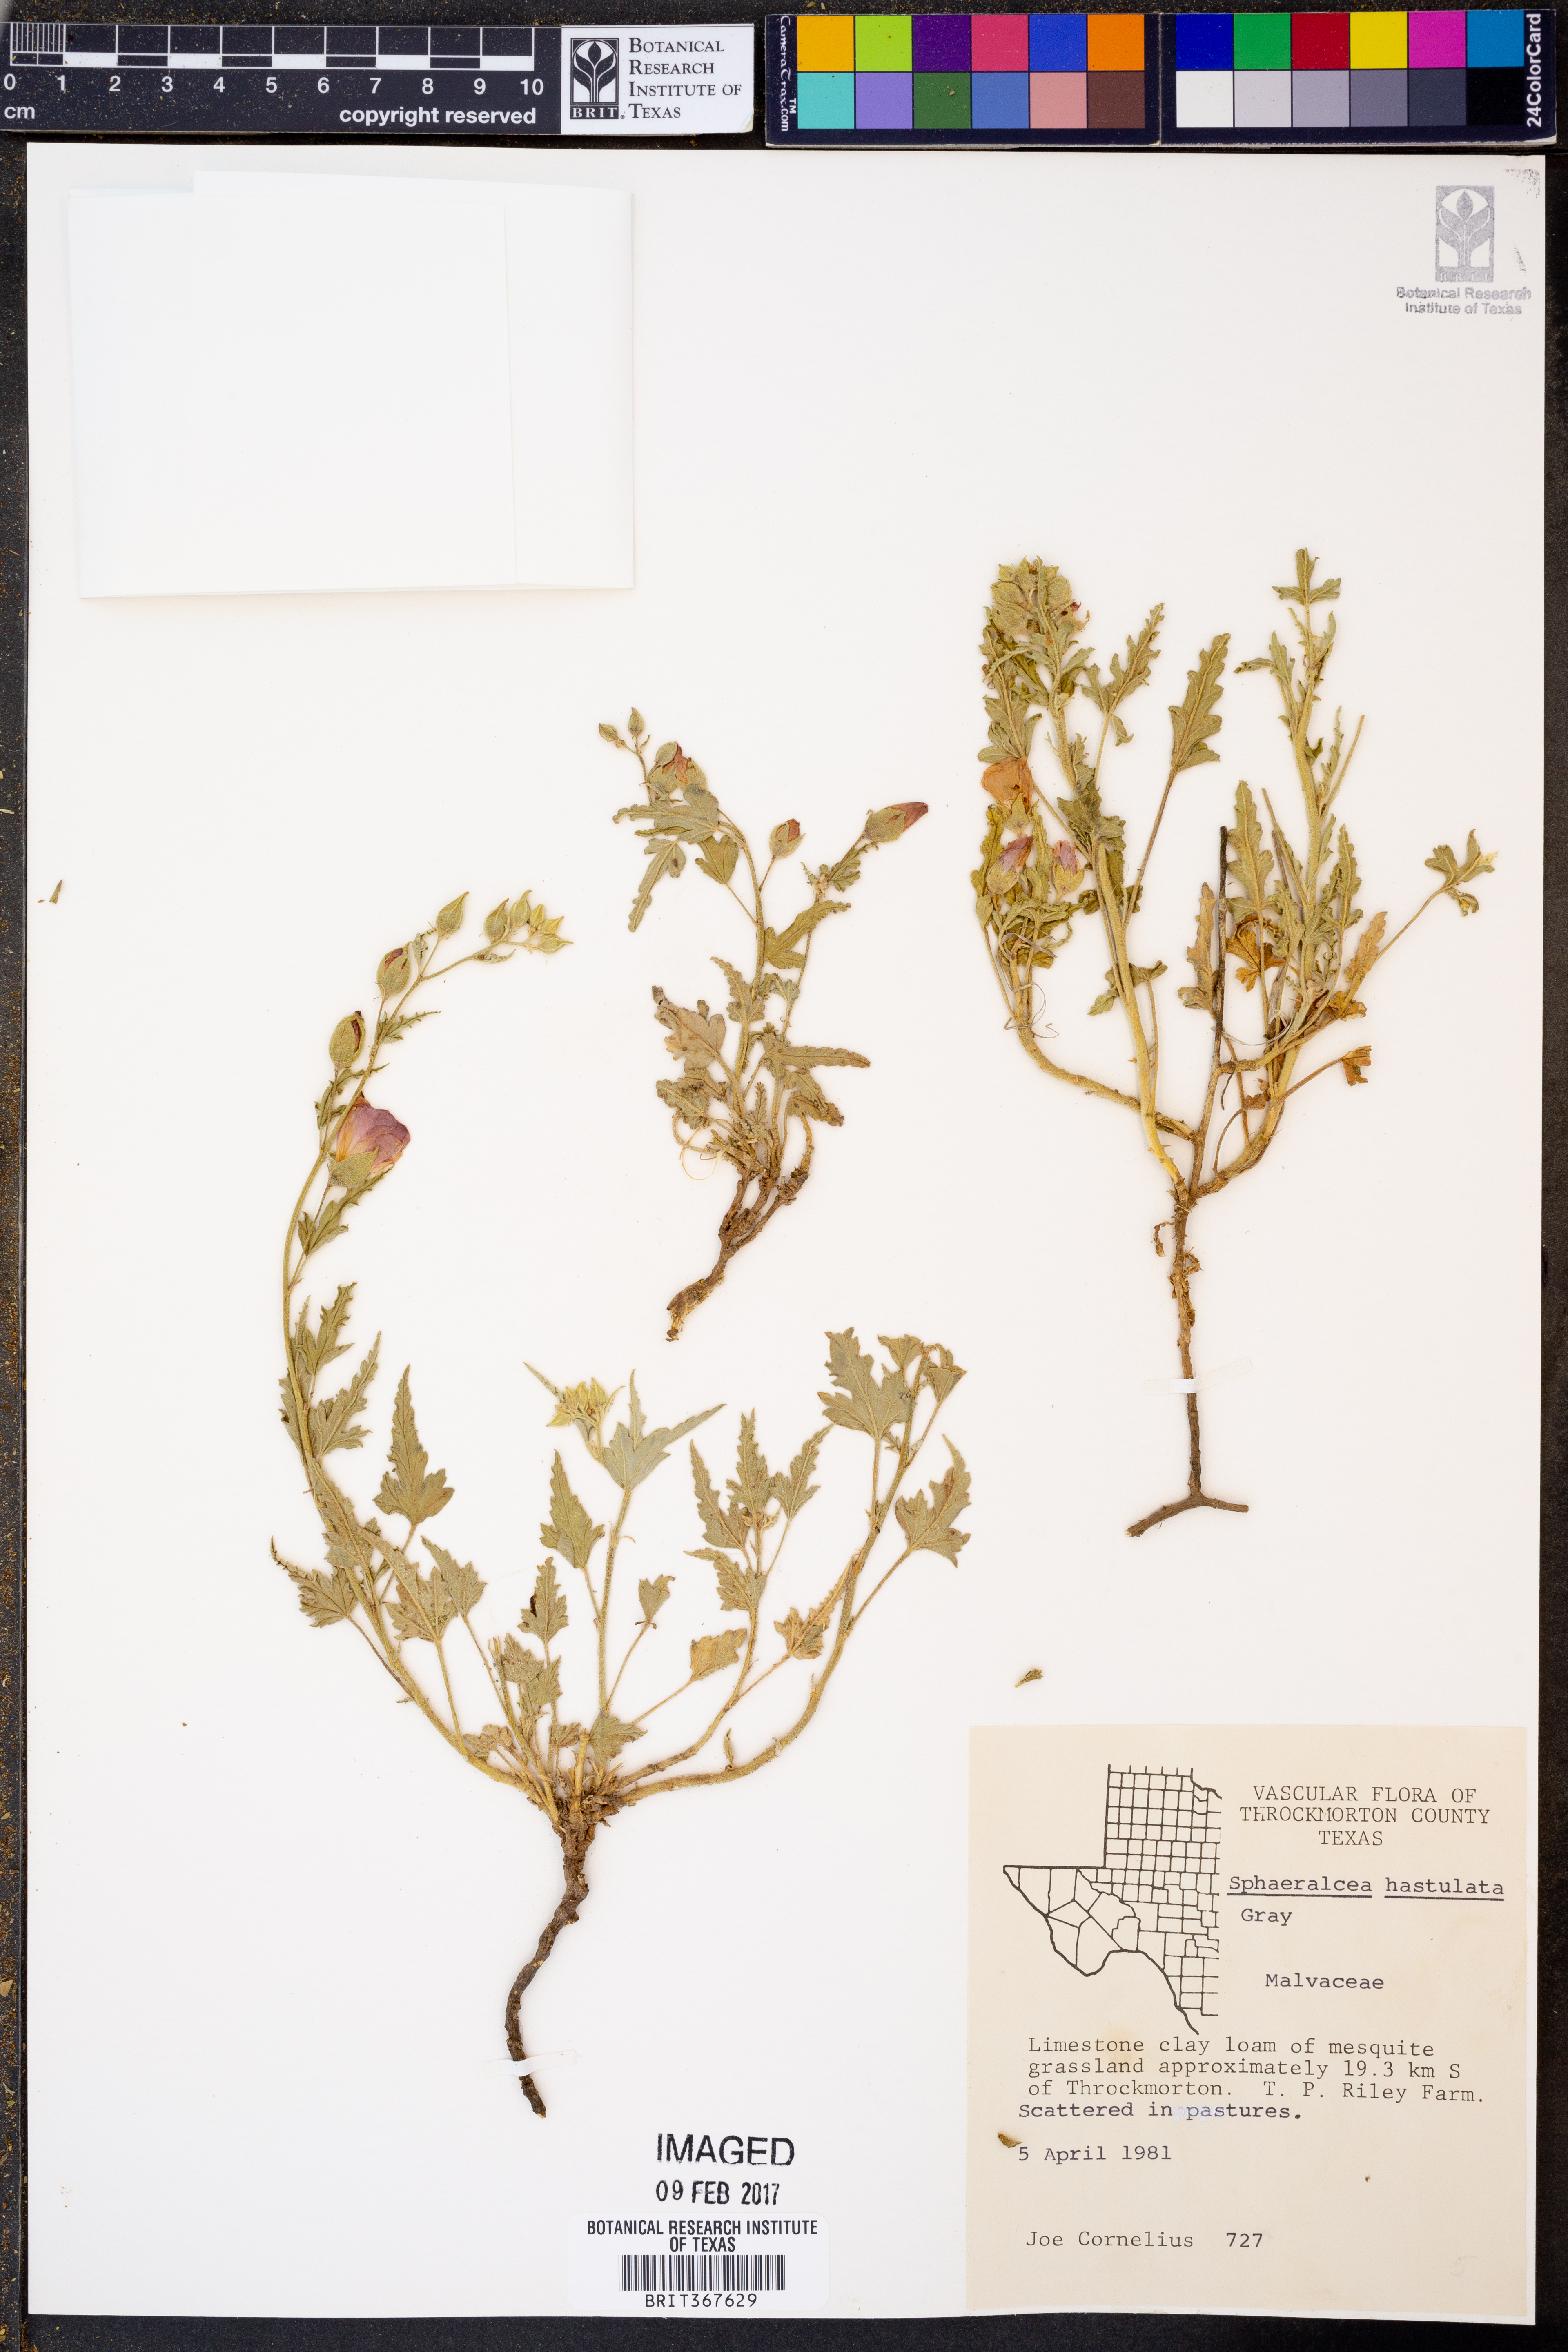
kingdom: Plantae
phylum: Tracheophyta
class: Magnoliopsida
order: Malvales
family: Malvaceae
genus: Sphaeralcea
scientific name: Sphaeralcea hastulata
